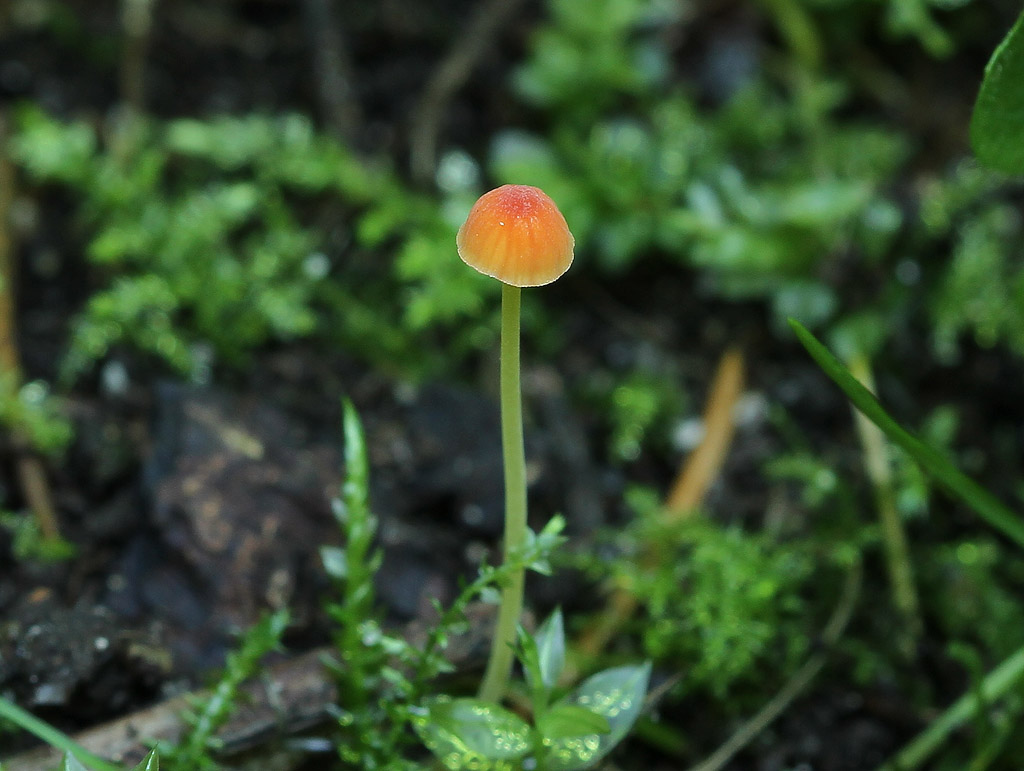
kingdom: Fungi
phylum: Basidiomycota
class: Agaricomycetes
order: Agaricales
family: Mycenaceae
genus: Mycena
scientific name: Mycena acicula
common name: orange huesvamp
